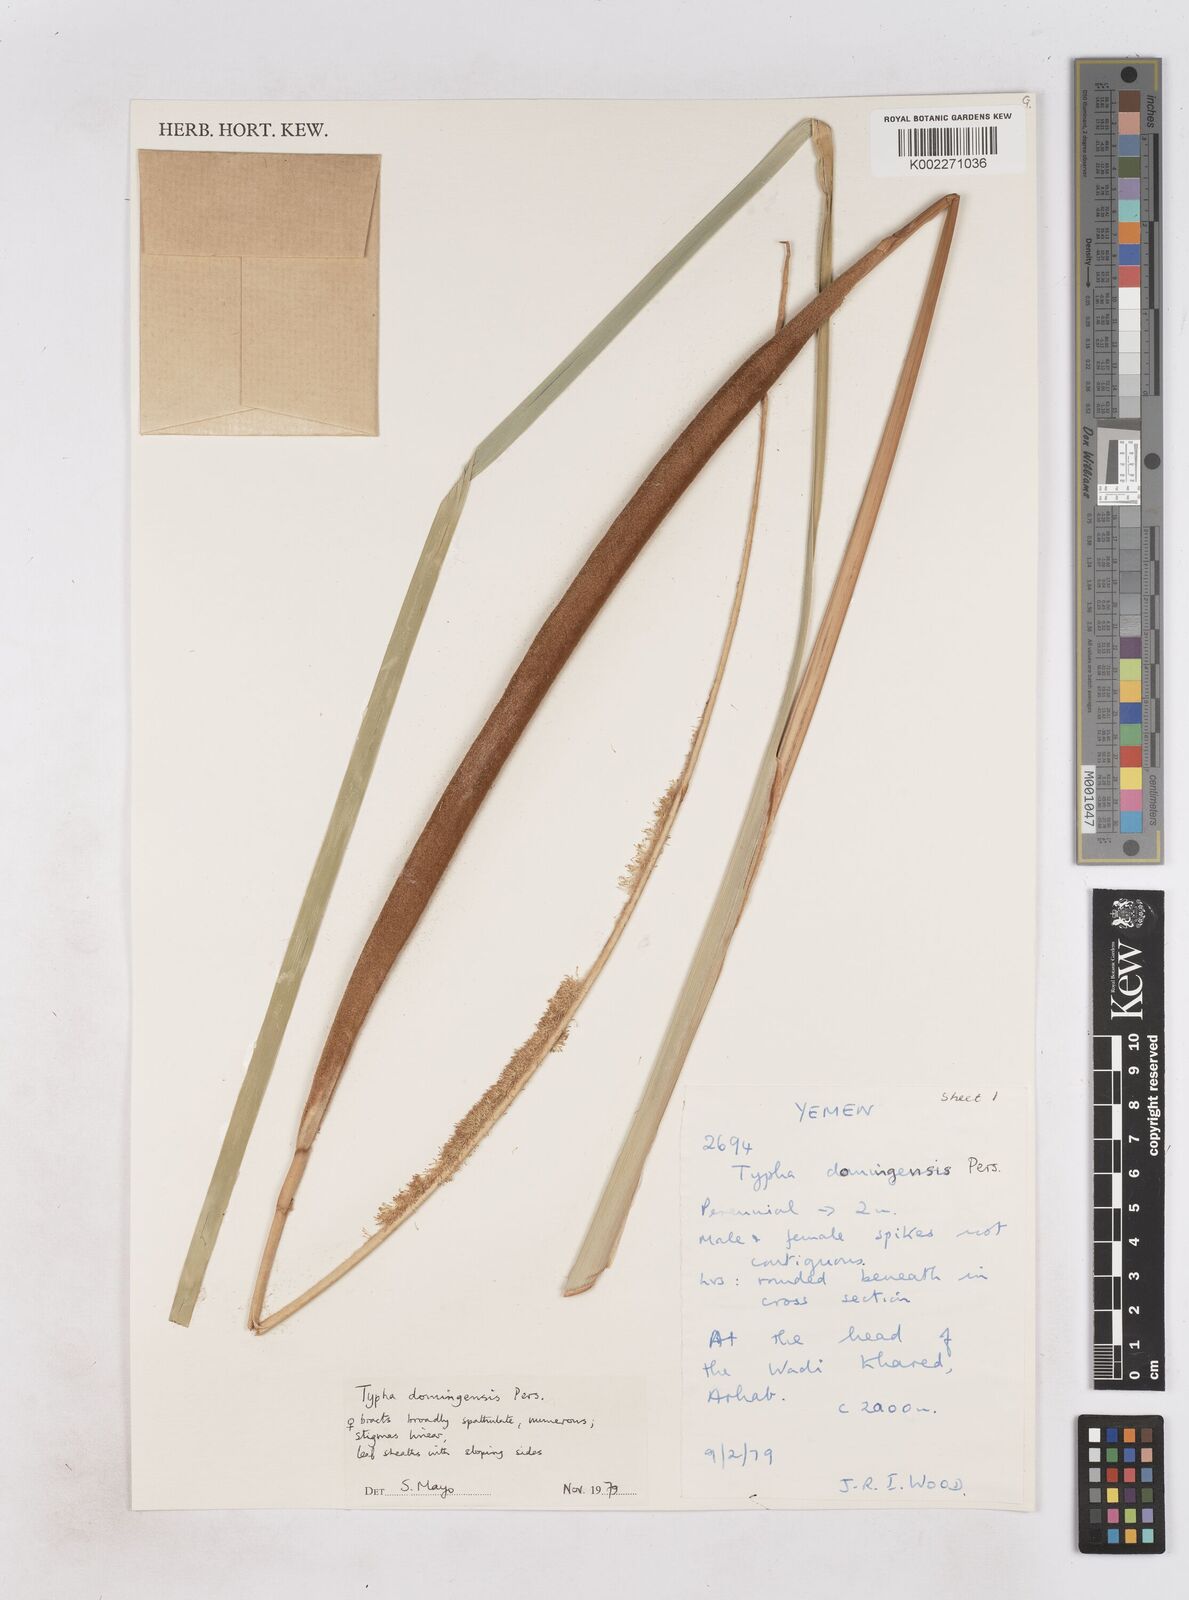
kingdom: Plantae
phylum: Tracheophyta
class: Liliopsida
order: Poales
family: Typhaceae
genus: Typha
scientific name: Typha domingensis
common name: Southern cattail
